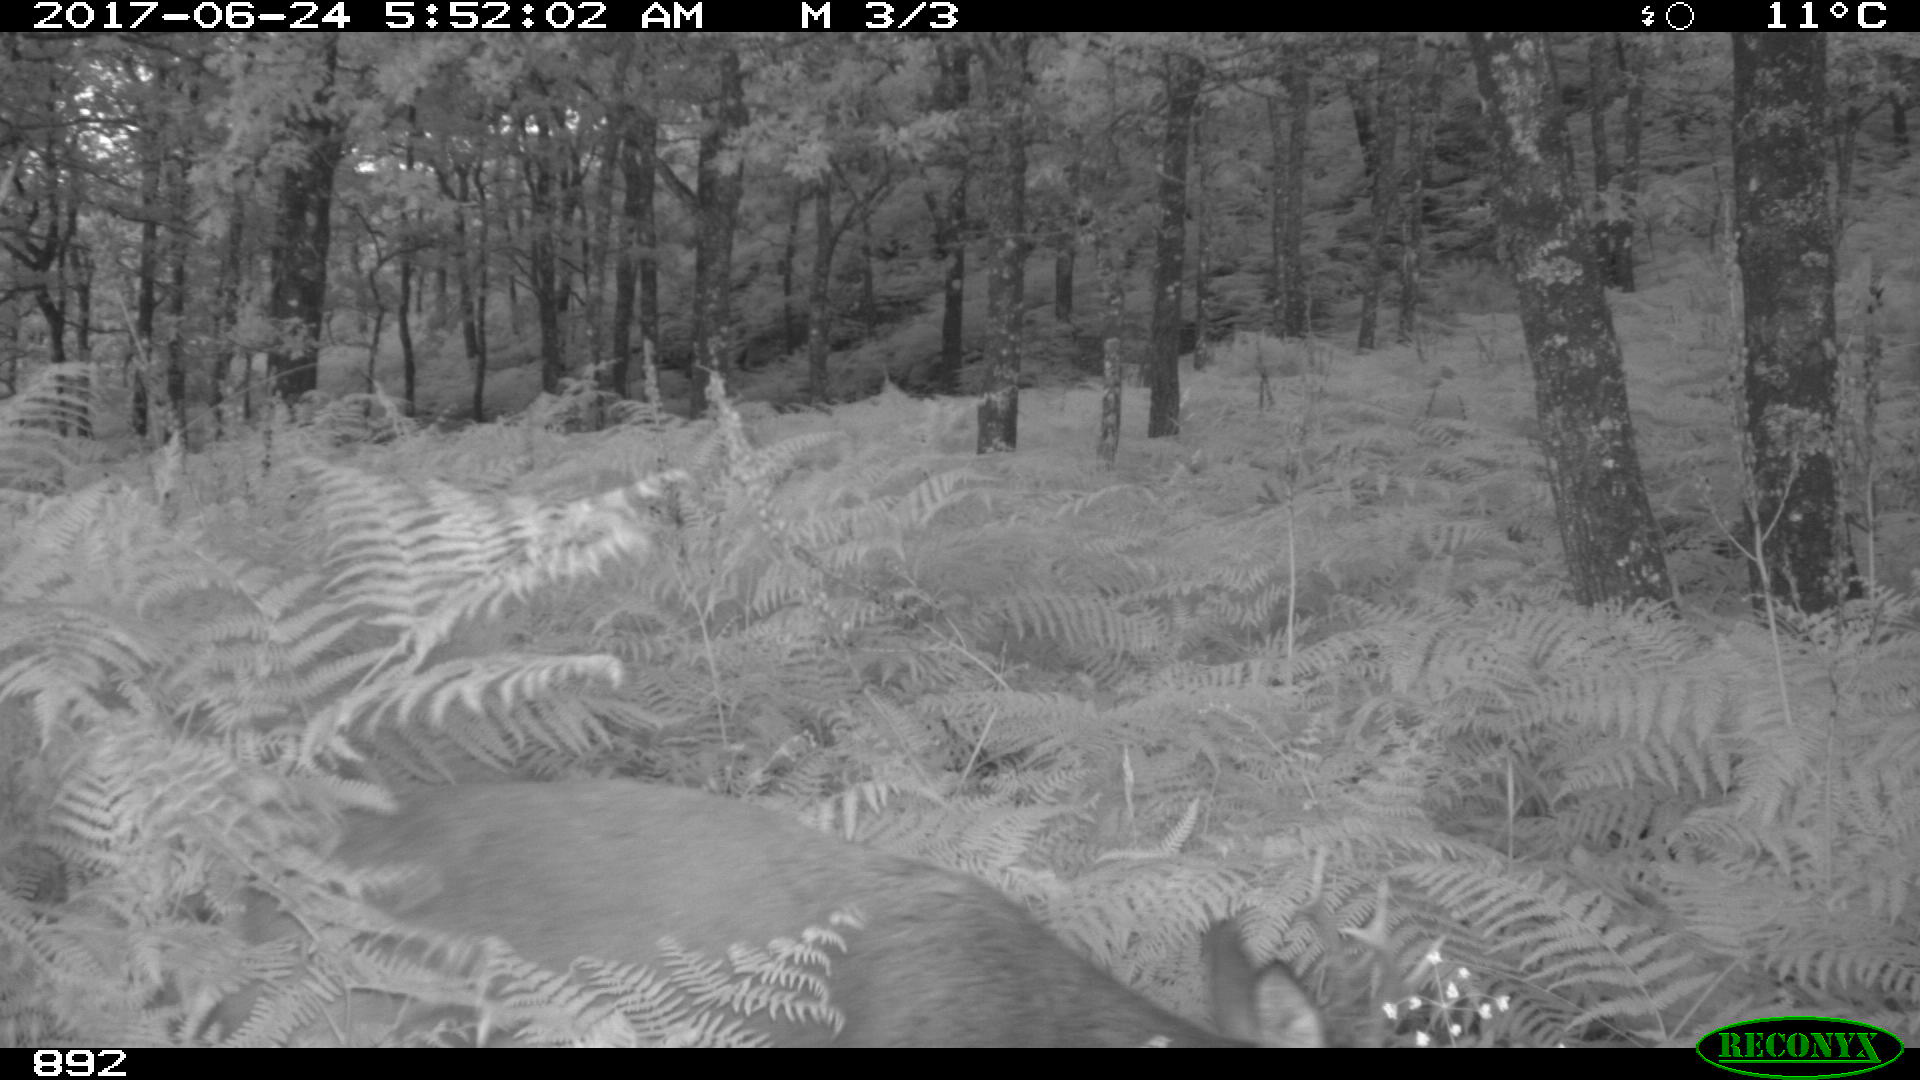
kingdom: Animalia
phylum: Chordata
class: Mammalia
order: Artiodactyla
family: Cervidae
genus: Capreolus
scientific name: Capreolus capreolus
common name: Western roe deer
